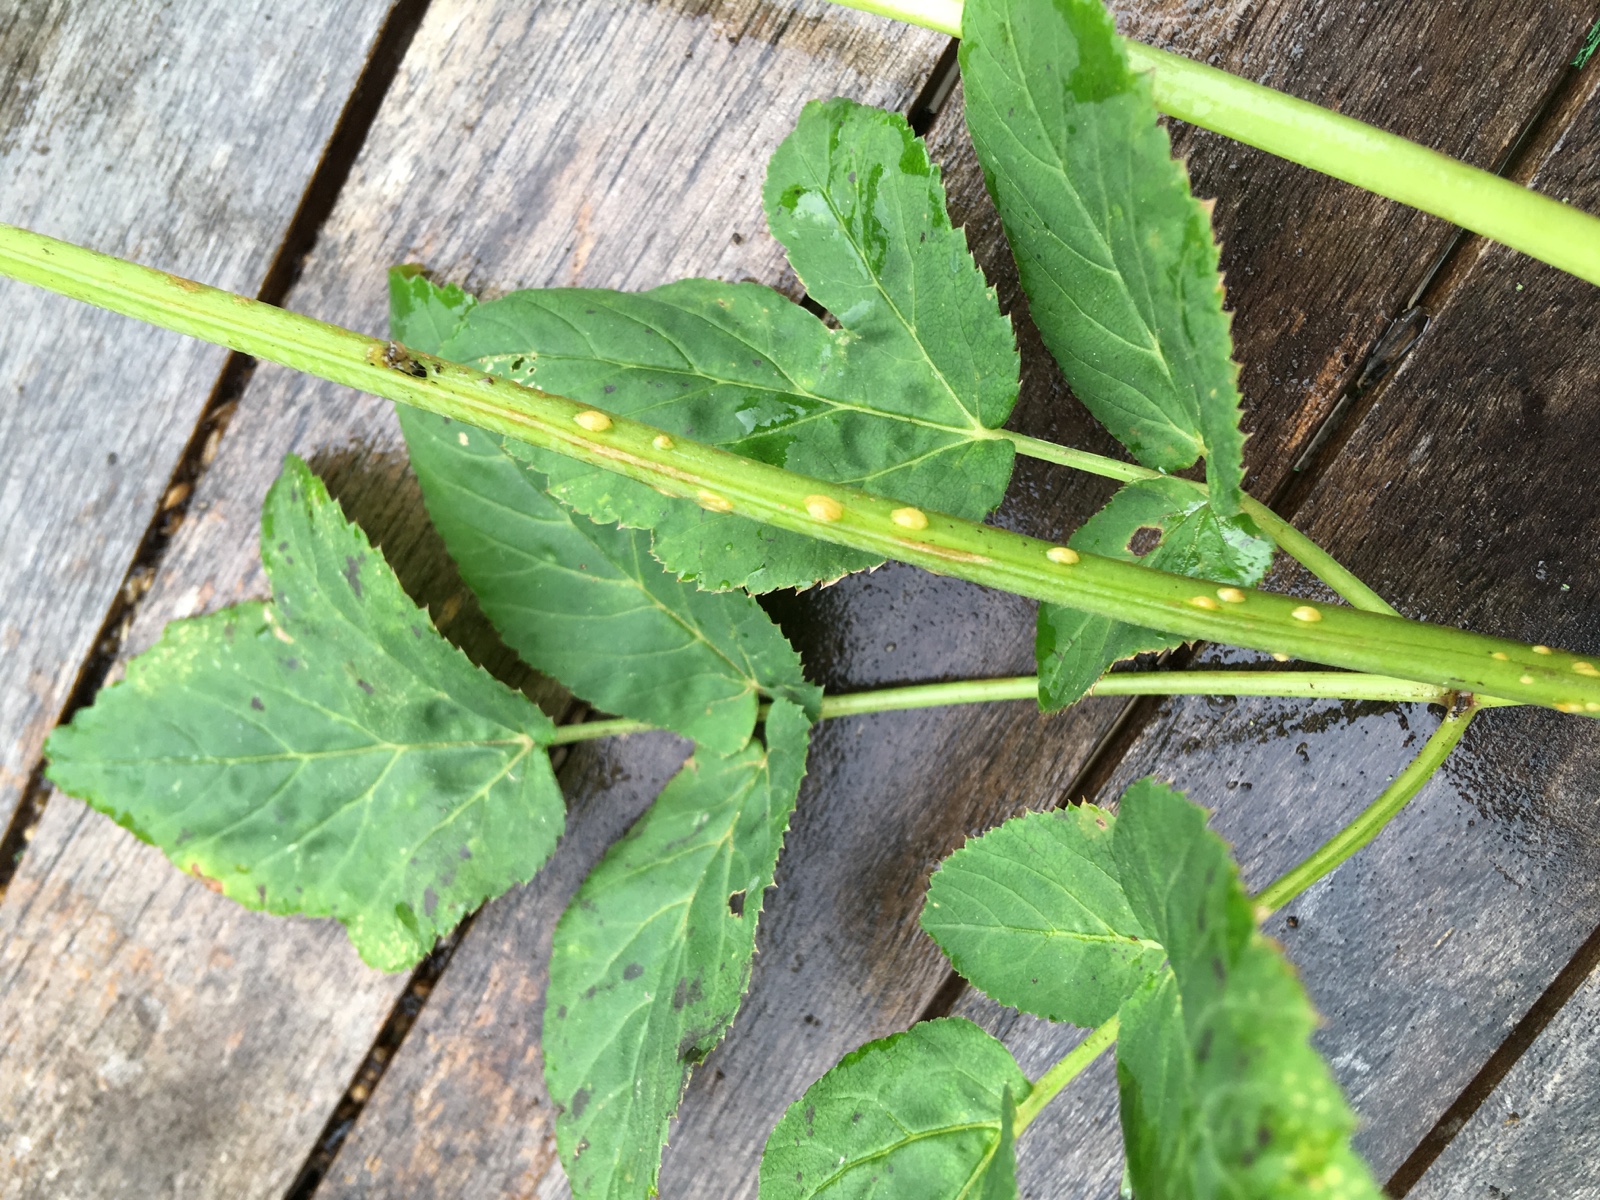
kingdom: Fungi
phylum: Ascomycota
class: Taphrinomycetes
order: Taphrinales
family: Taphrinaceae
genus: Protomyces
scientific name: Protomyces macrosporus
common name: skvalderkål-vablesæk
